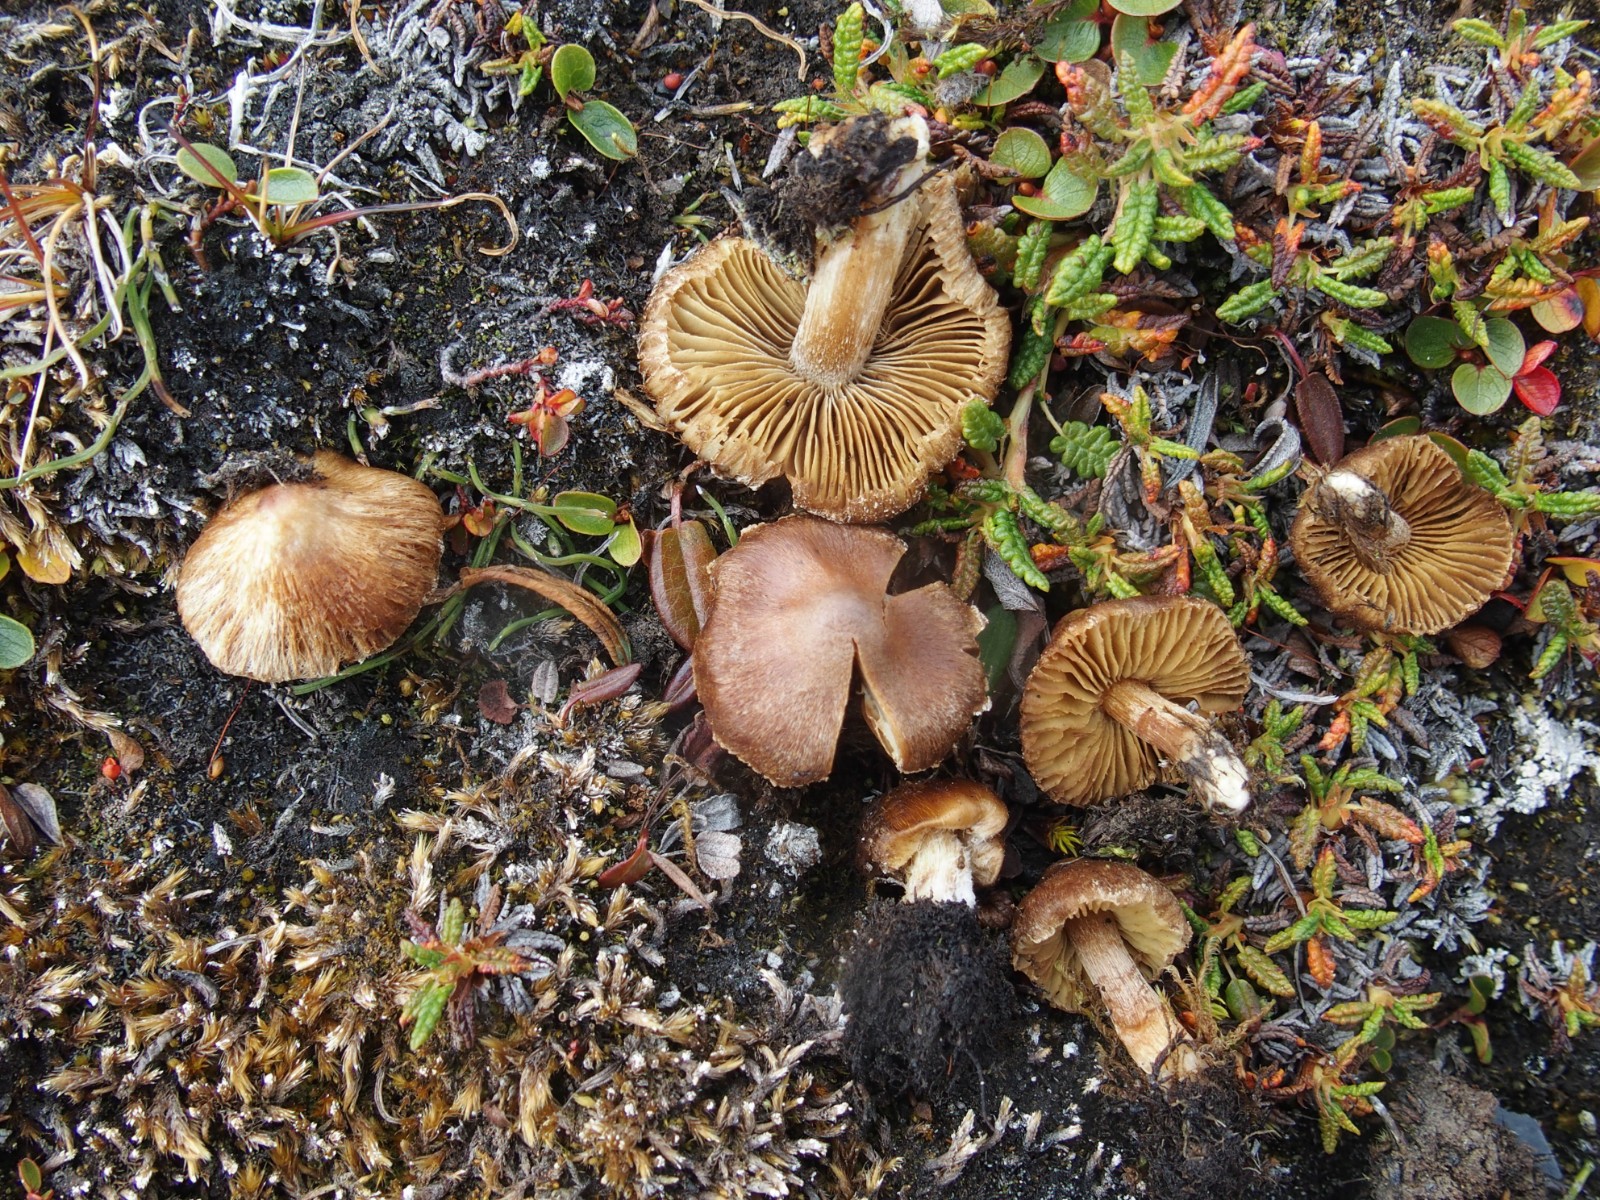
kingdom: Fungi
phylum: Basidiomycota
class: Agaricomycetes
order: Agaricales
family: Inocybaceae
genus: Inocybe
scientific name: Inocybe
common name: trævlhat
